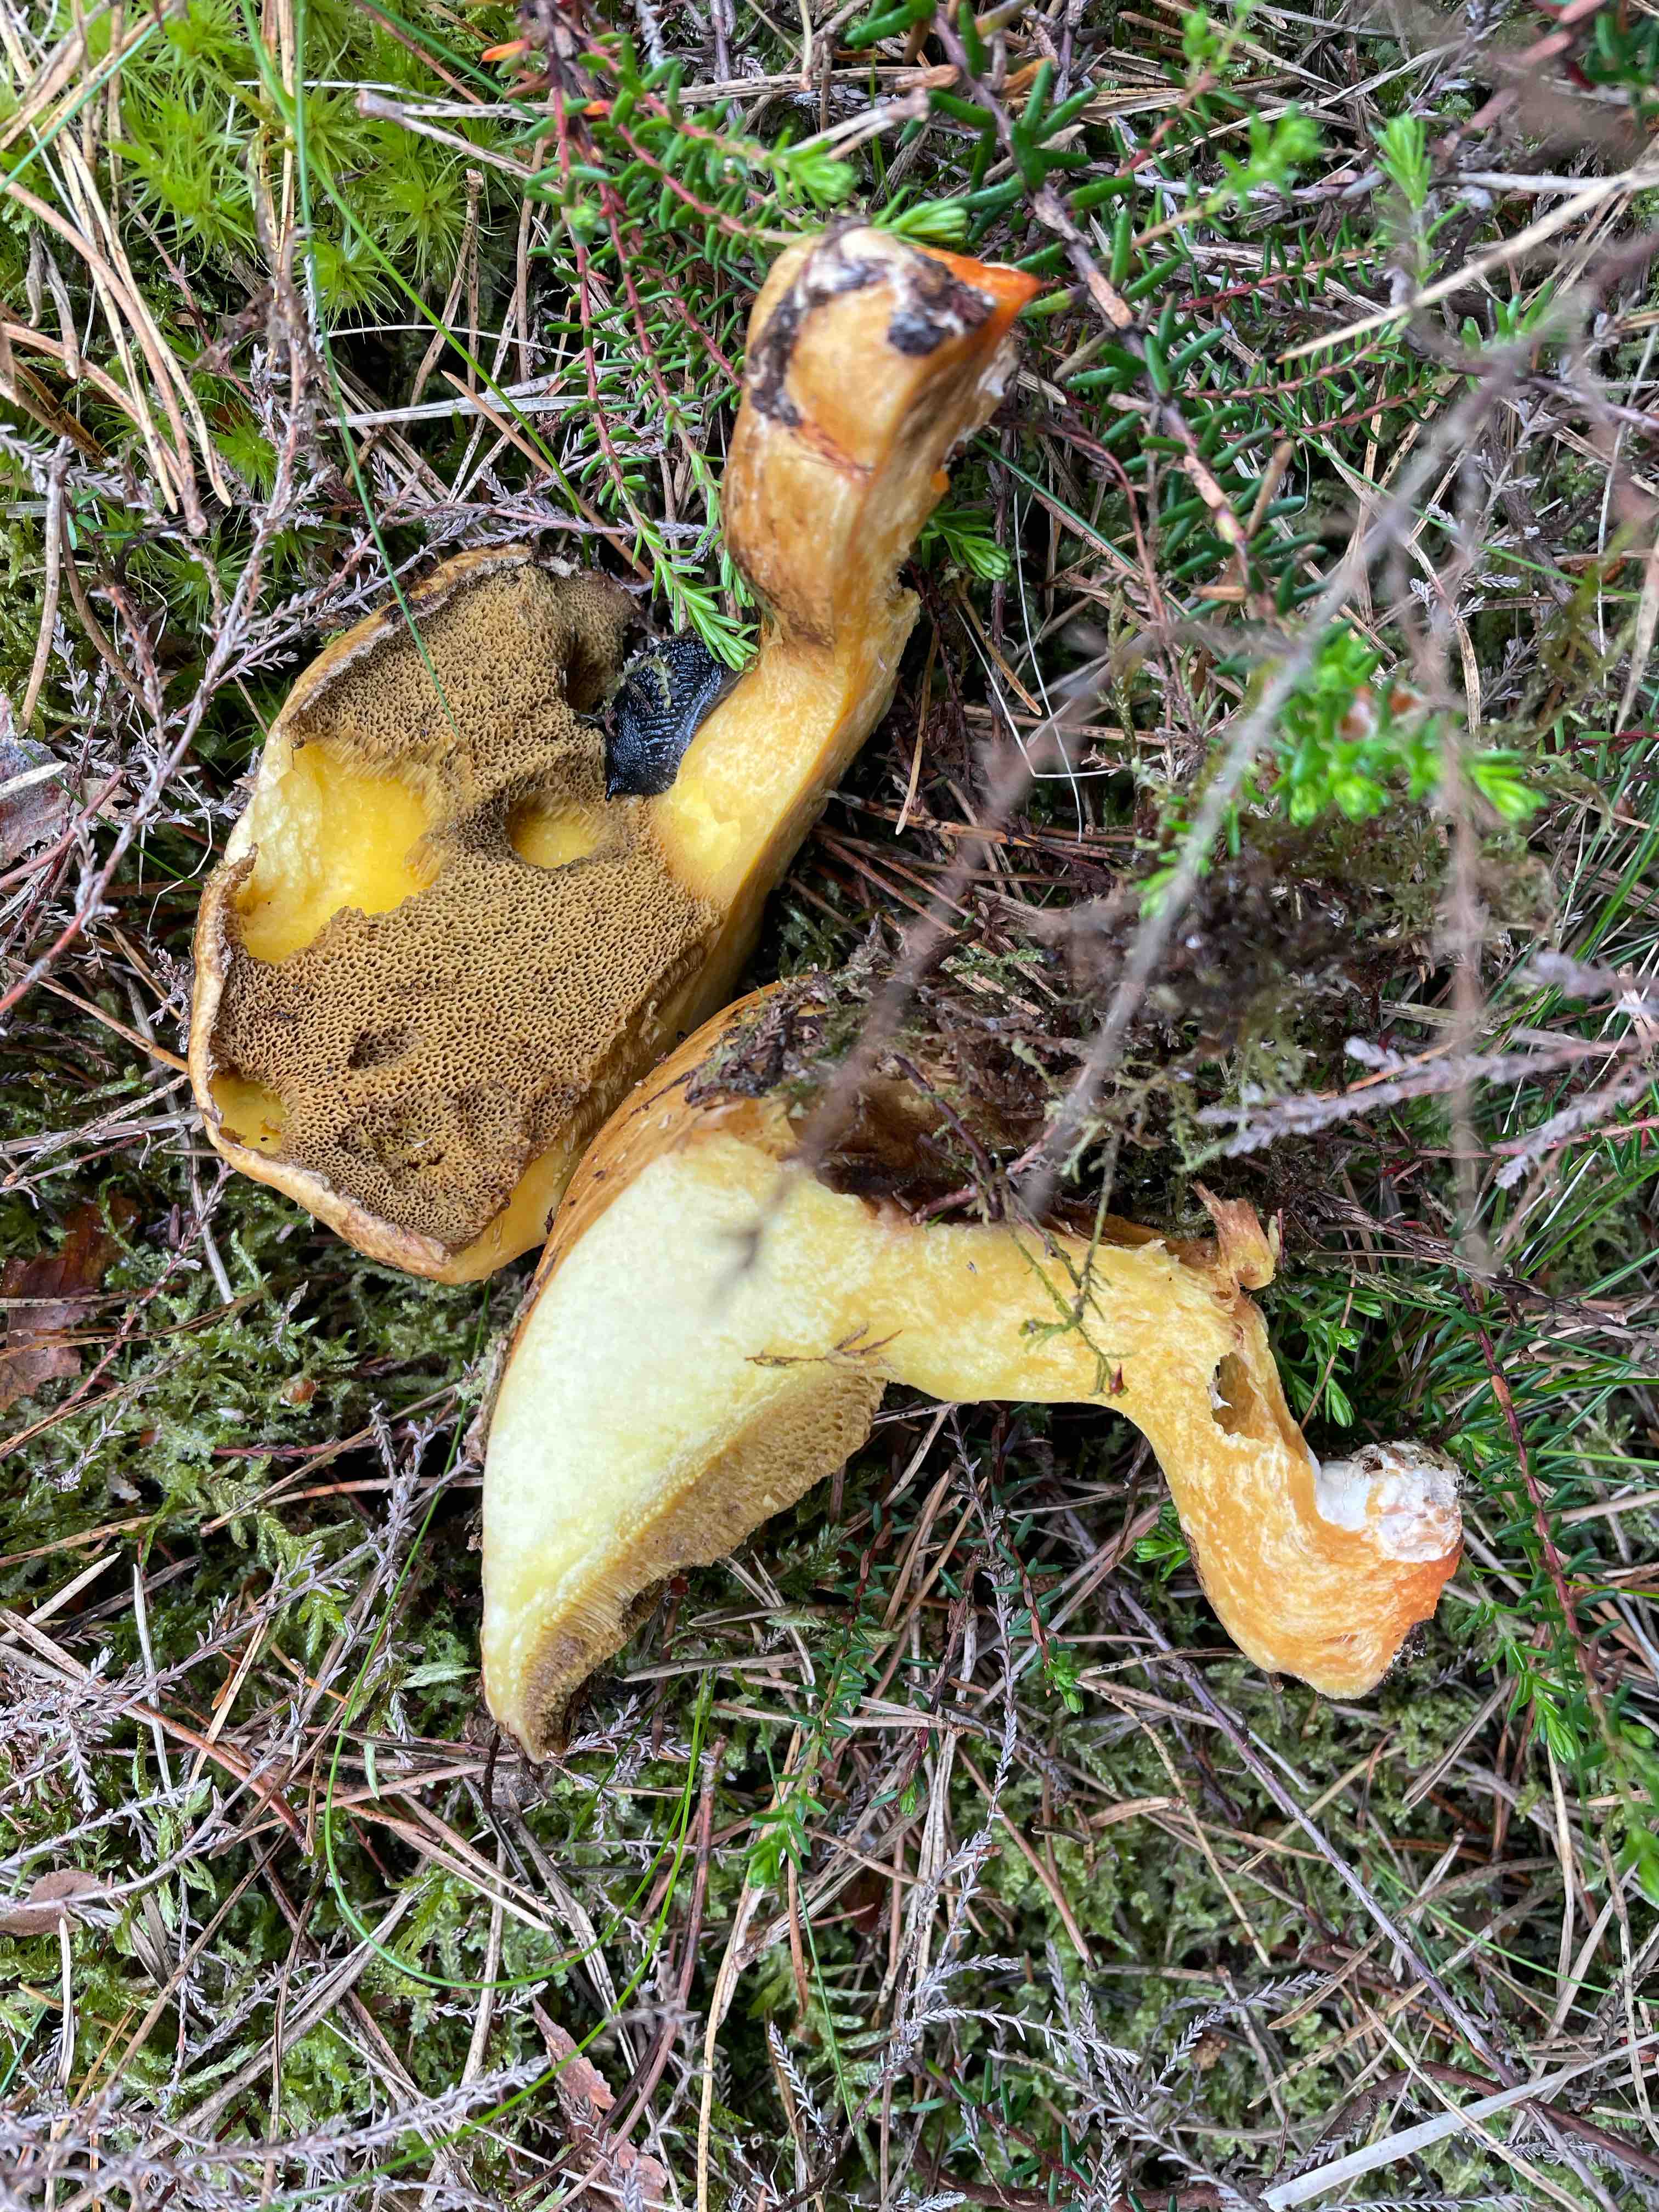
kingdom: Fungi
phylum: Basidiomycota
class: Agaricomycetes
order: Boletales
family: Suillaceae
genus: Suillus
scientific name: Suillus variegatus
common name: broget slimrørhat
